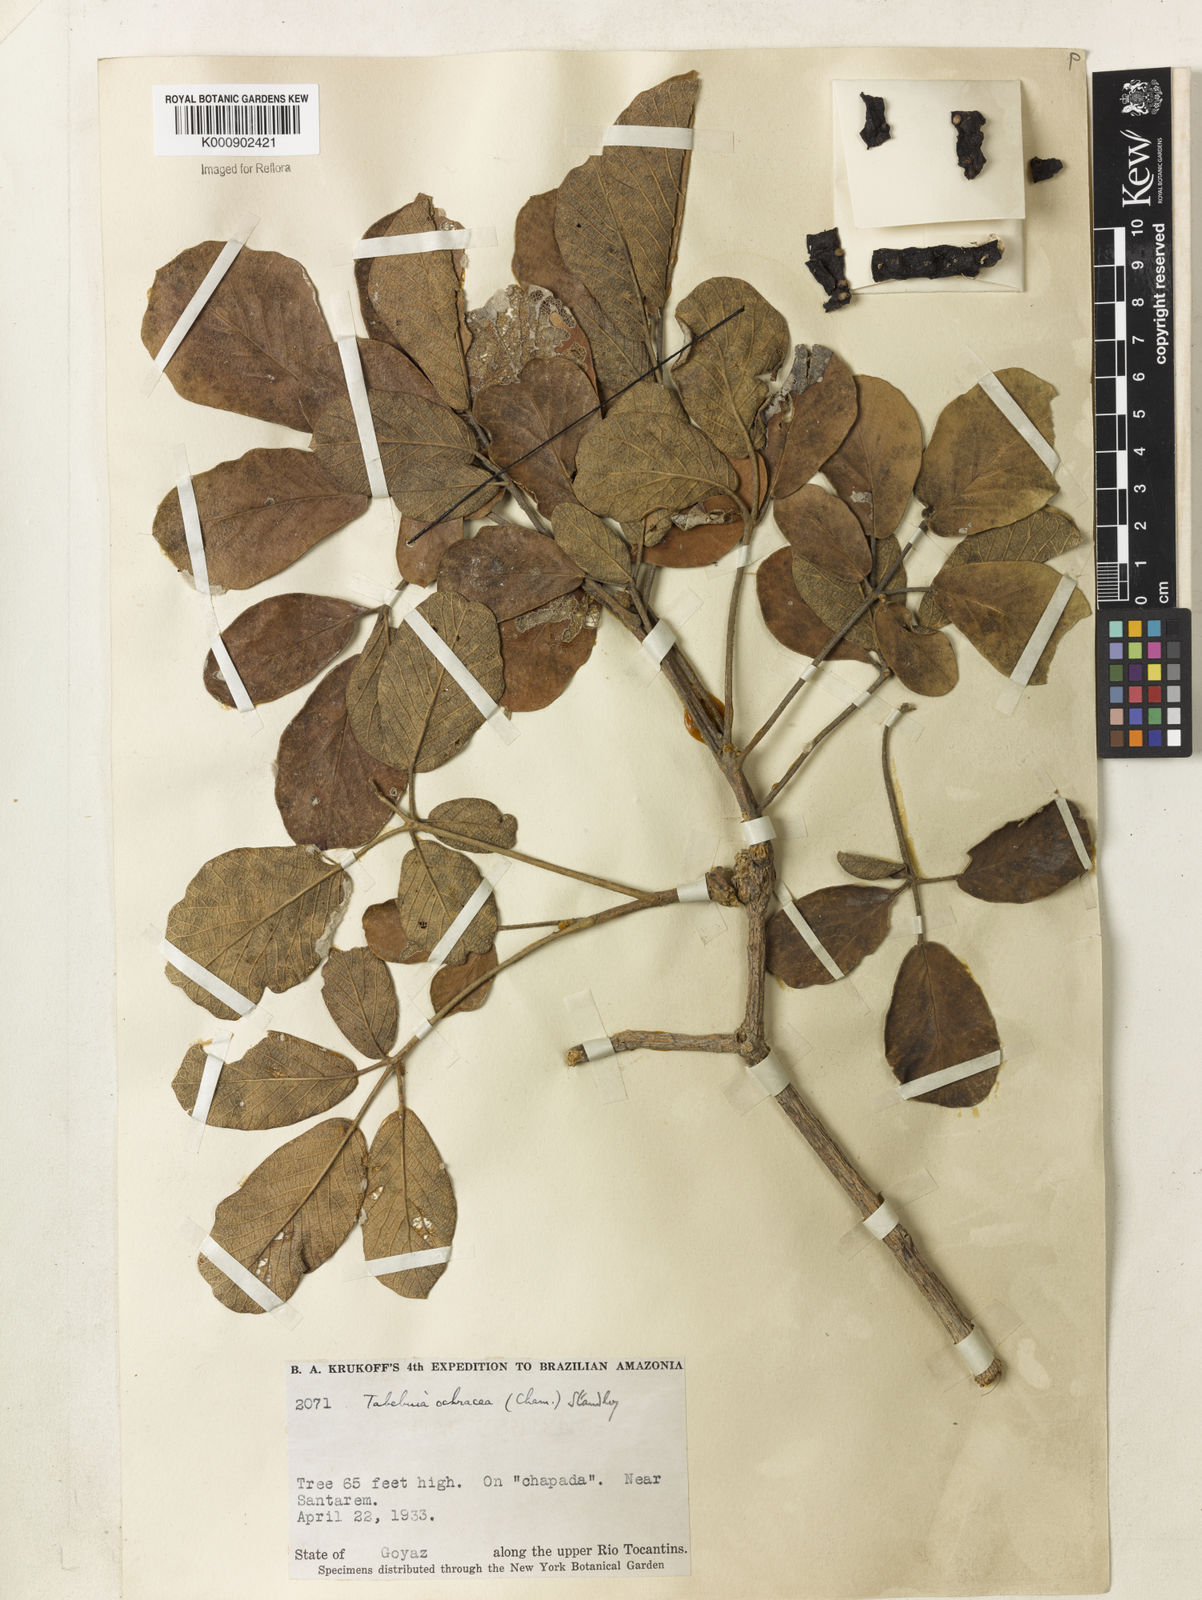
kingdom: Plantae
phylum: Tracheophyta
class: Magnoliopsida
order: Lamiales
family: Bignoniaceae
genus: Handroanthus
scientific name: Handroanthus ochraceus
